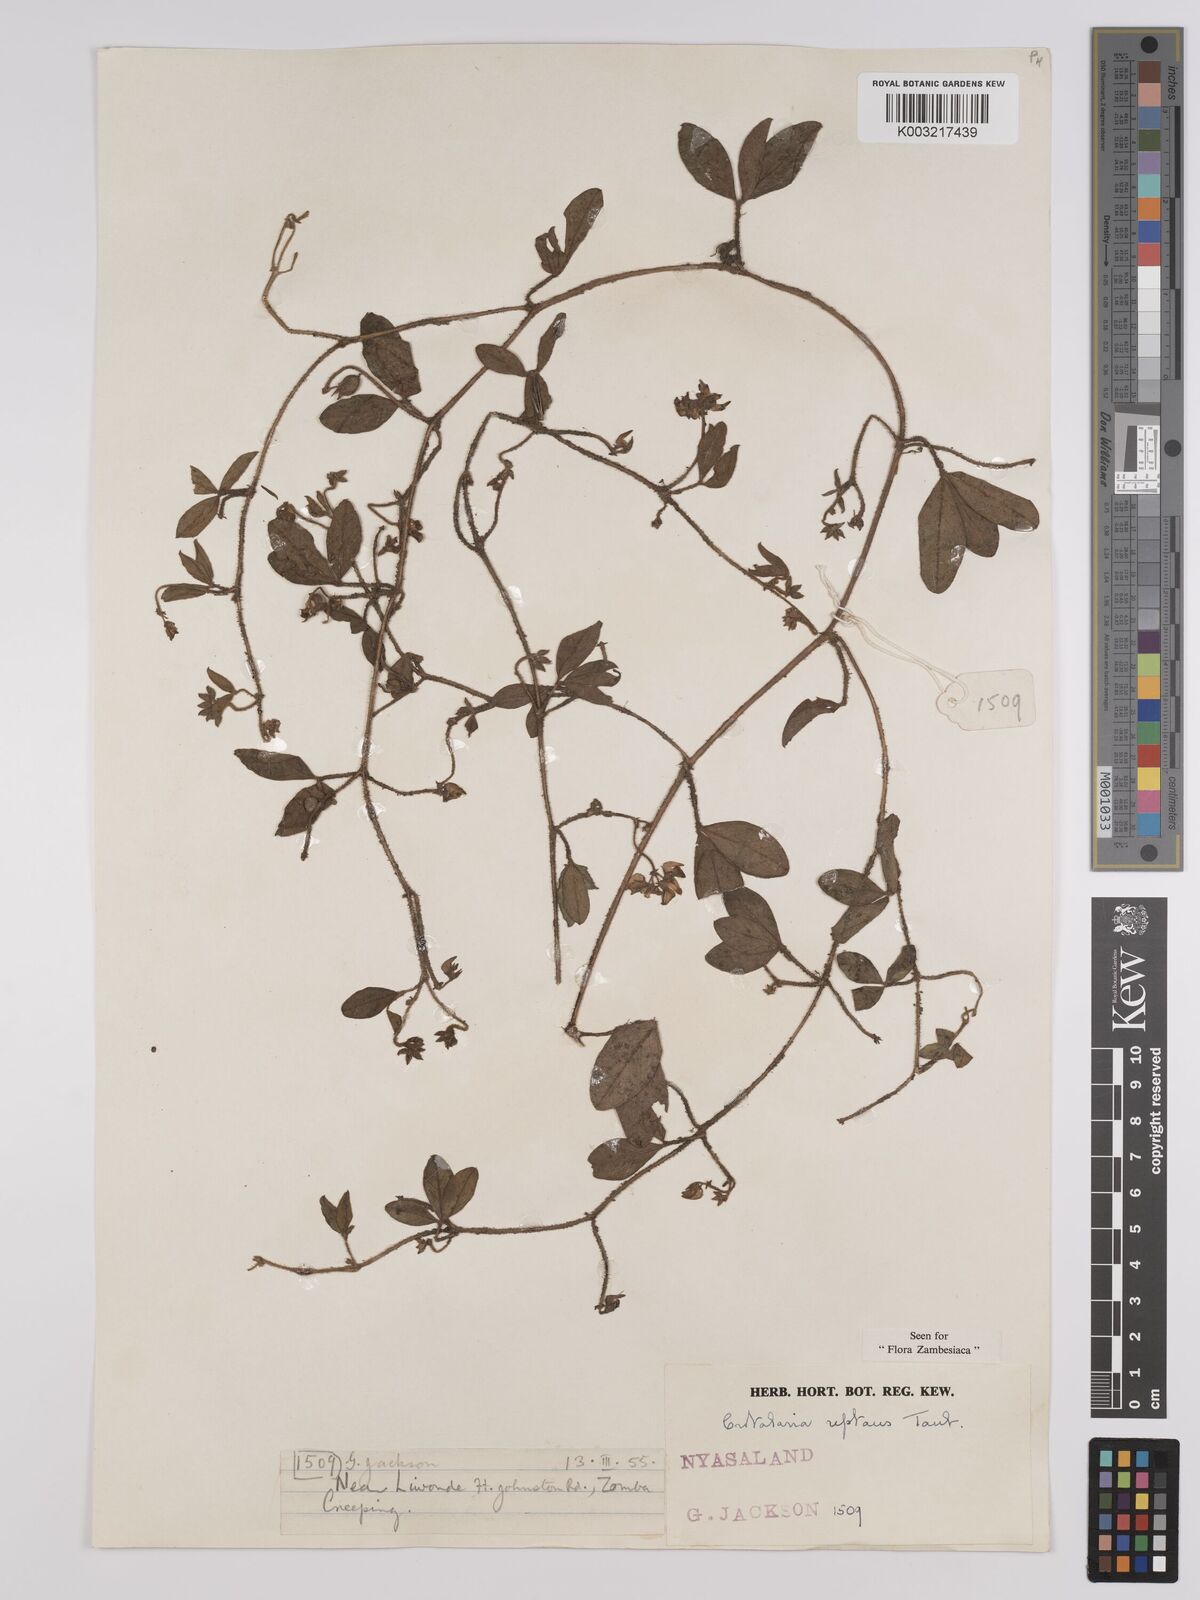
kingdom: Plantae
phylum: Tracheophyta
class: Magnoliopsida
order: Fabales
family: Fabaceae
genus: Crotalaria
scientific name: Crotalaria reptans
